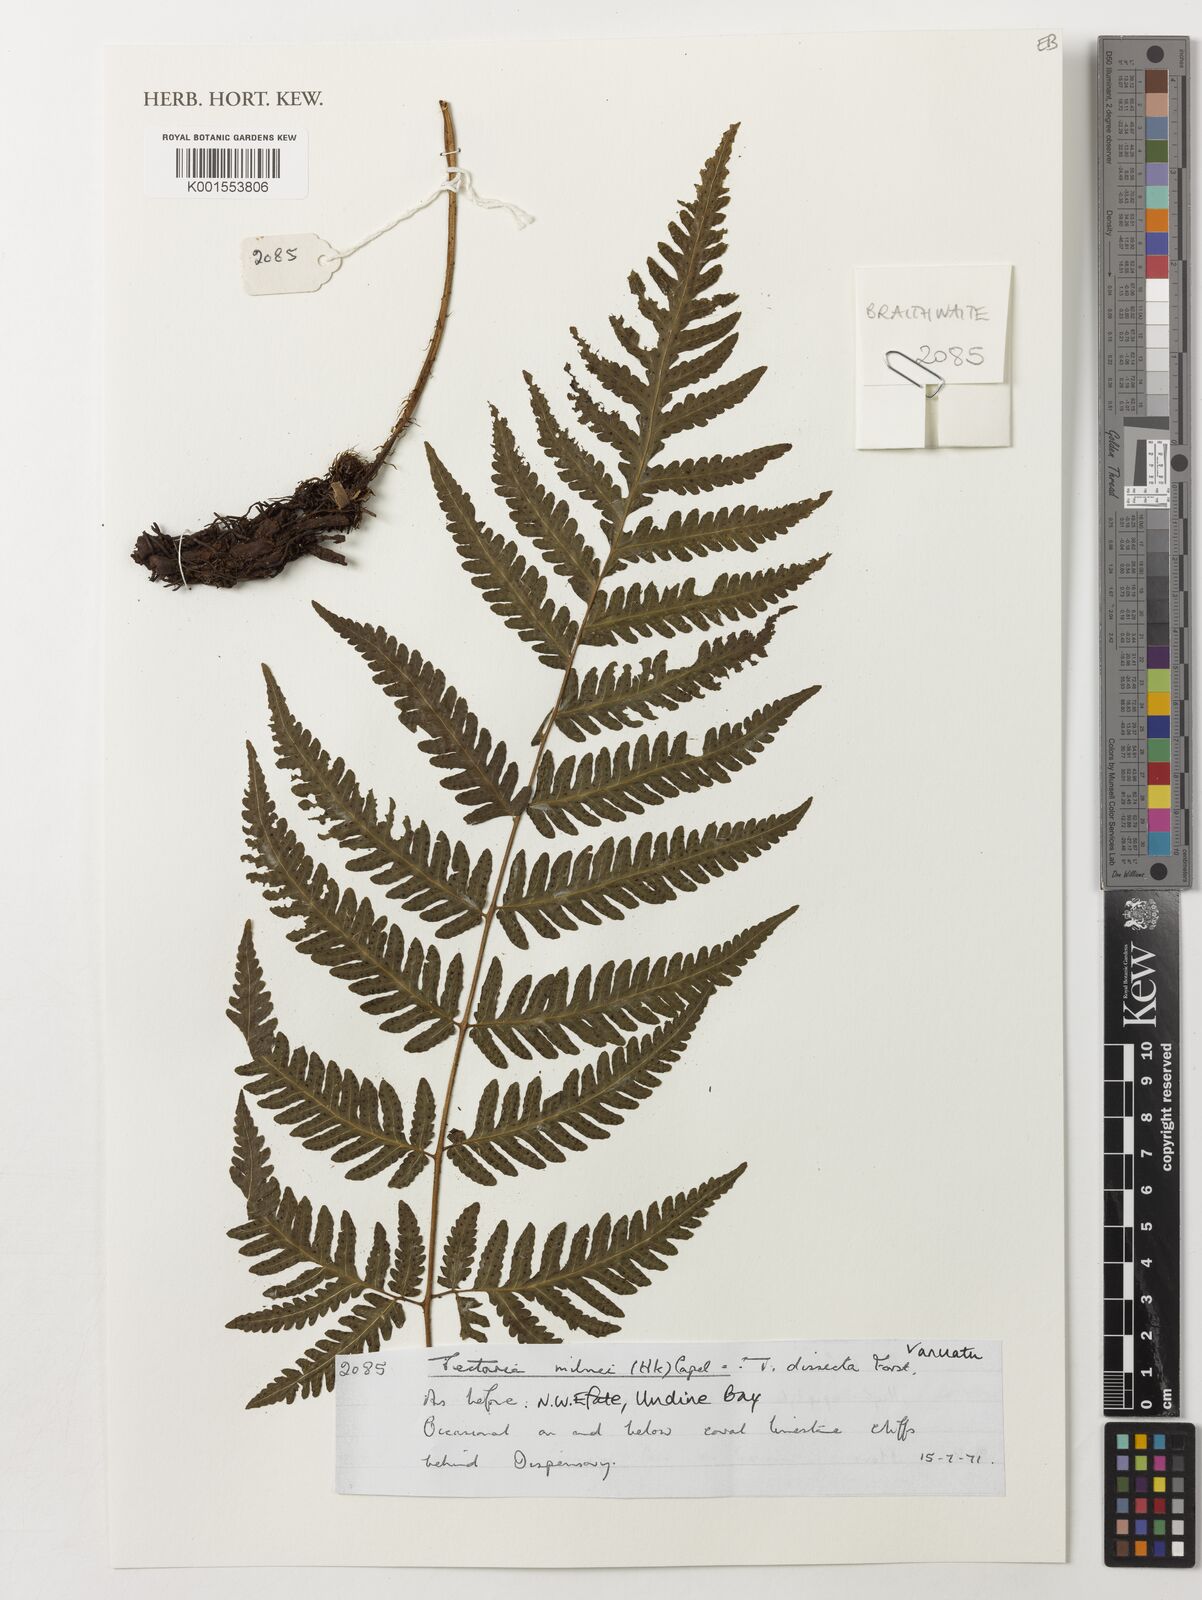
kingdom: Plantae
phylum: Tracheophyta
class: Polypodiopsida
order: Polypodiales
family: Tectariaceae
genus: Tectaria
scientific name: Tectaria hookeri
